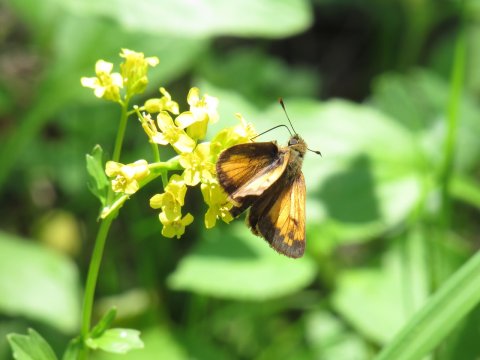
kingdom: Animalia
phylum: Arthropoda
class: Insecta
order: Lepidoptera
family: Hesperiidae
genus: Lon
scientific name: Lon hobomok
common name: Hobomok Skipper
